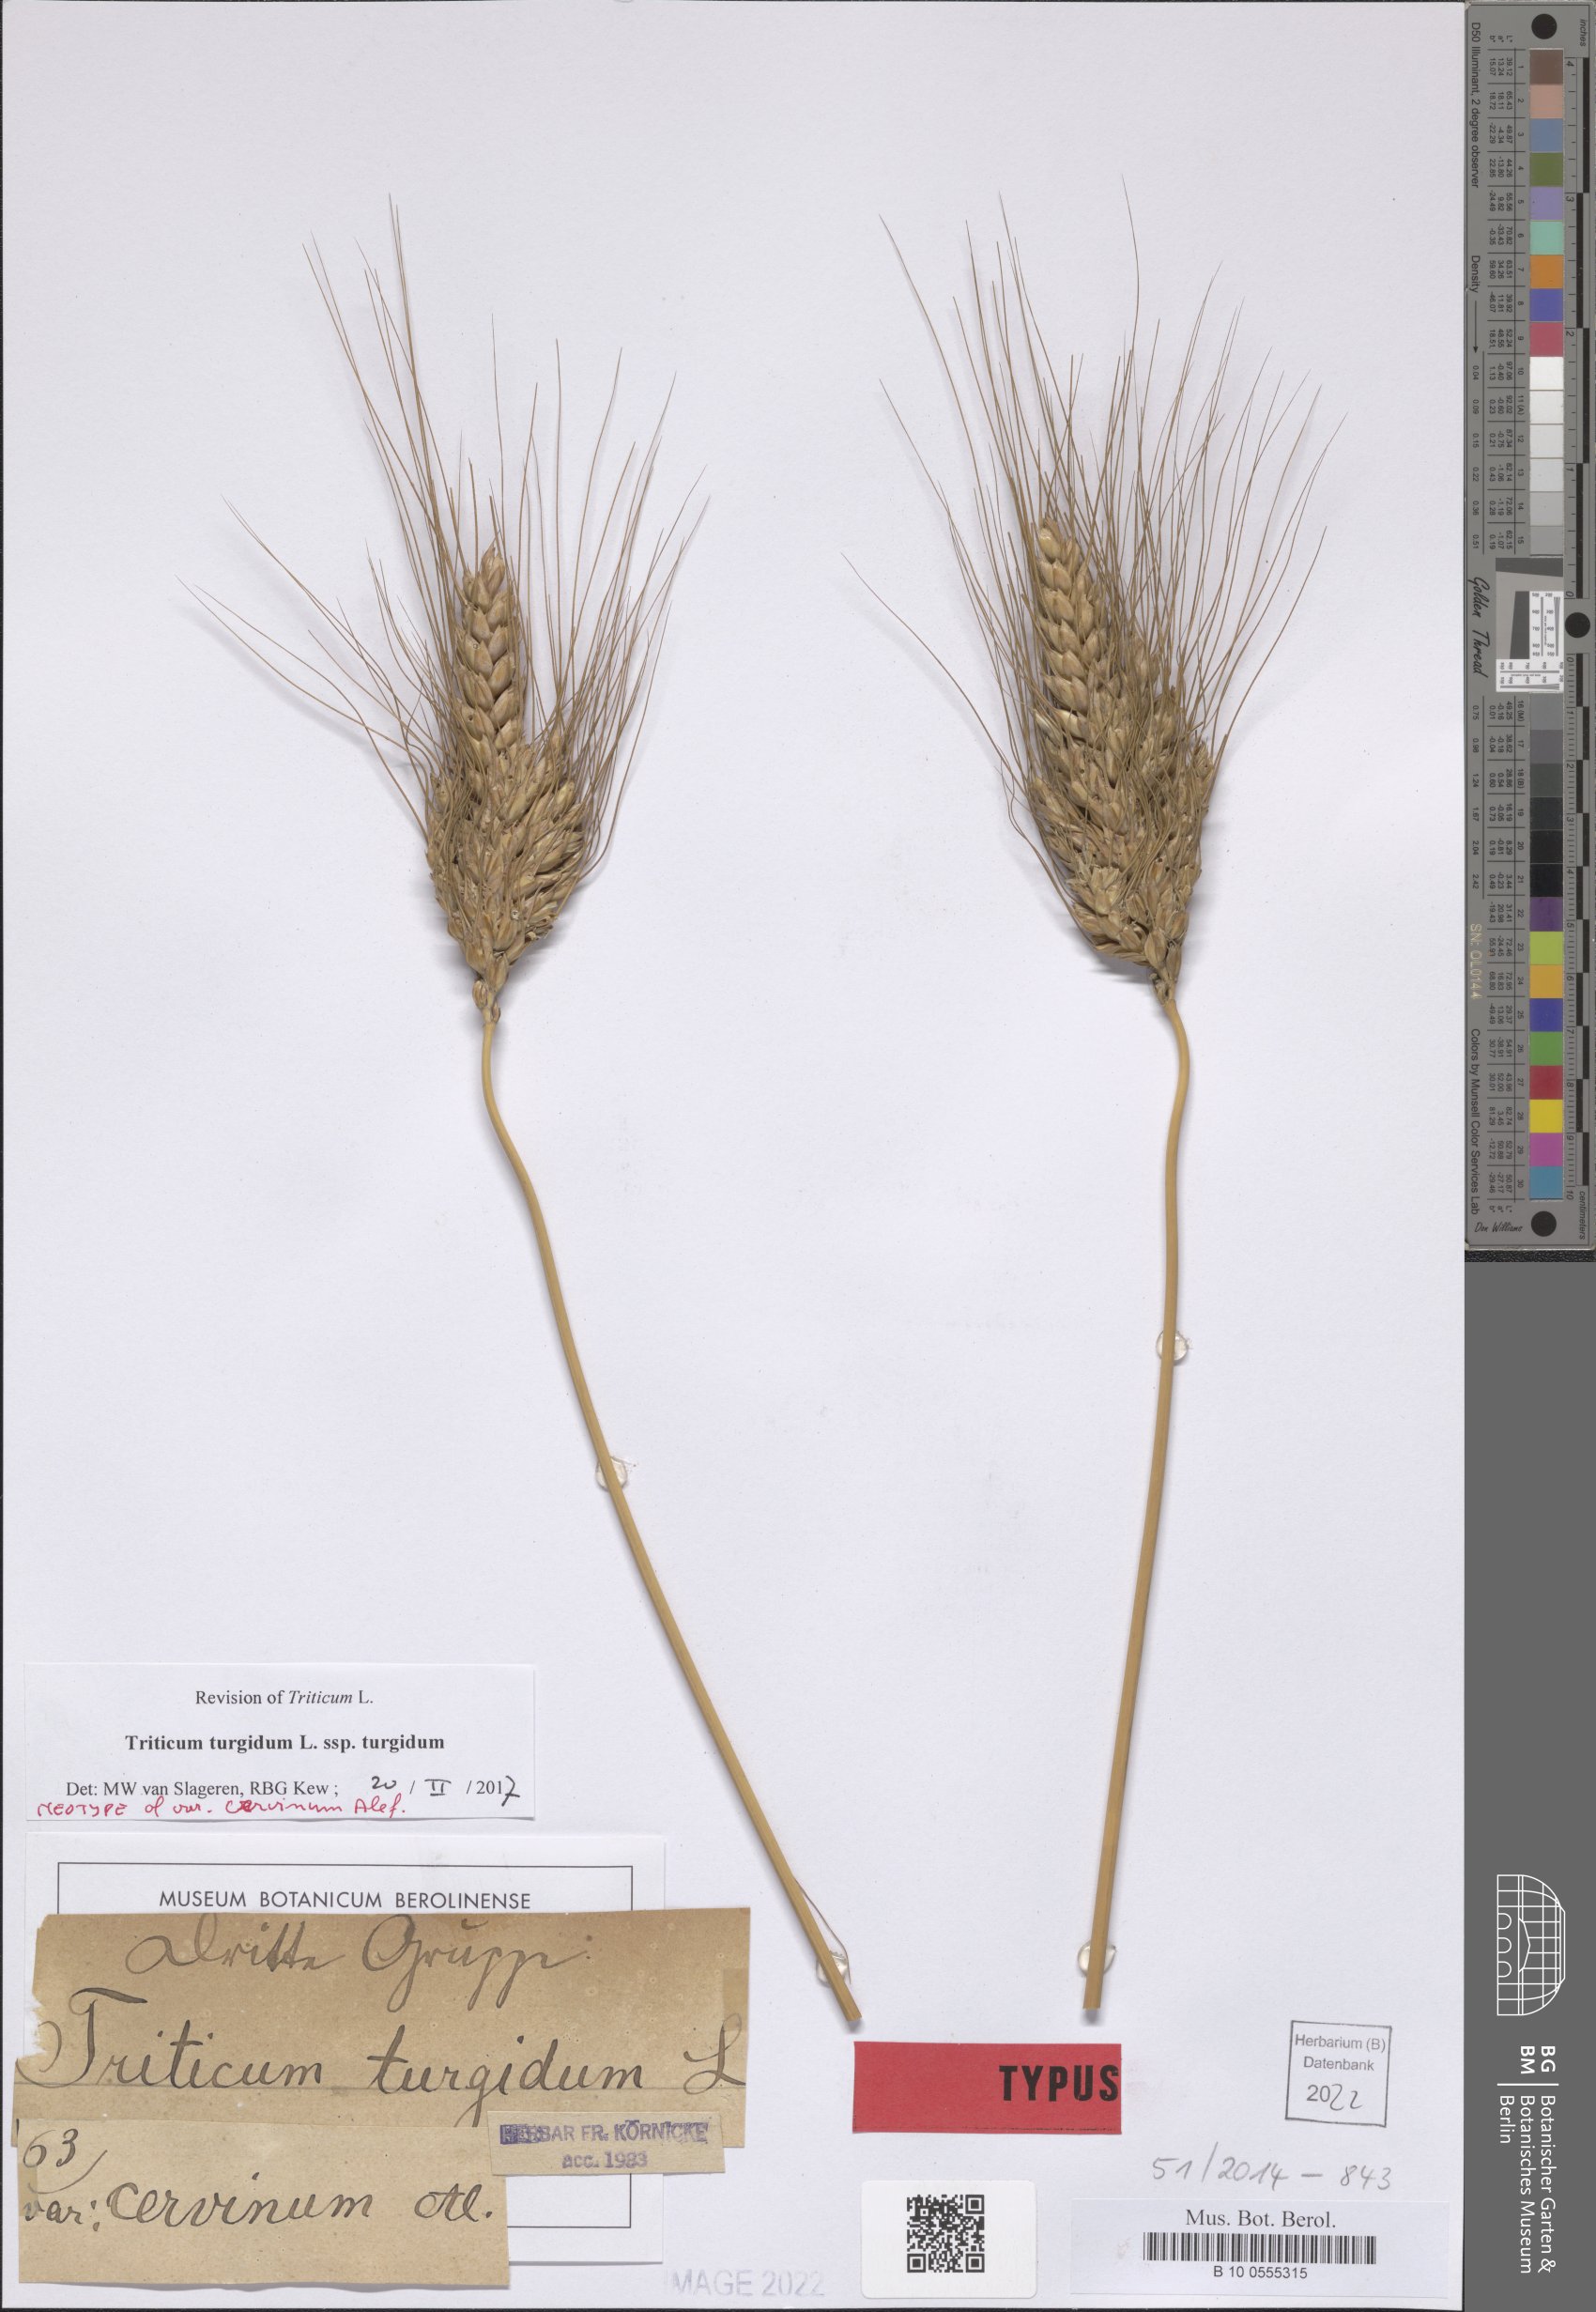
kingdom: Plantae
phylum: Tracheophyta
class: Liliopsida
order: Poales
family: Poaceae
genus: Triticum
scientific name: Triticum turgidum
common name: Rivet wheat
